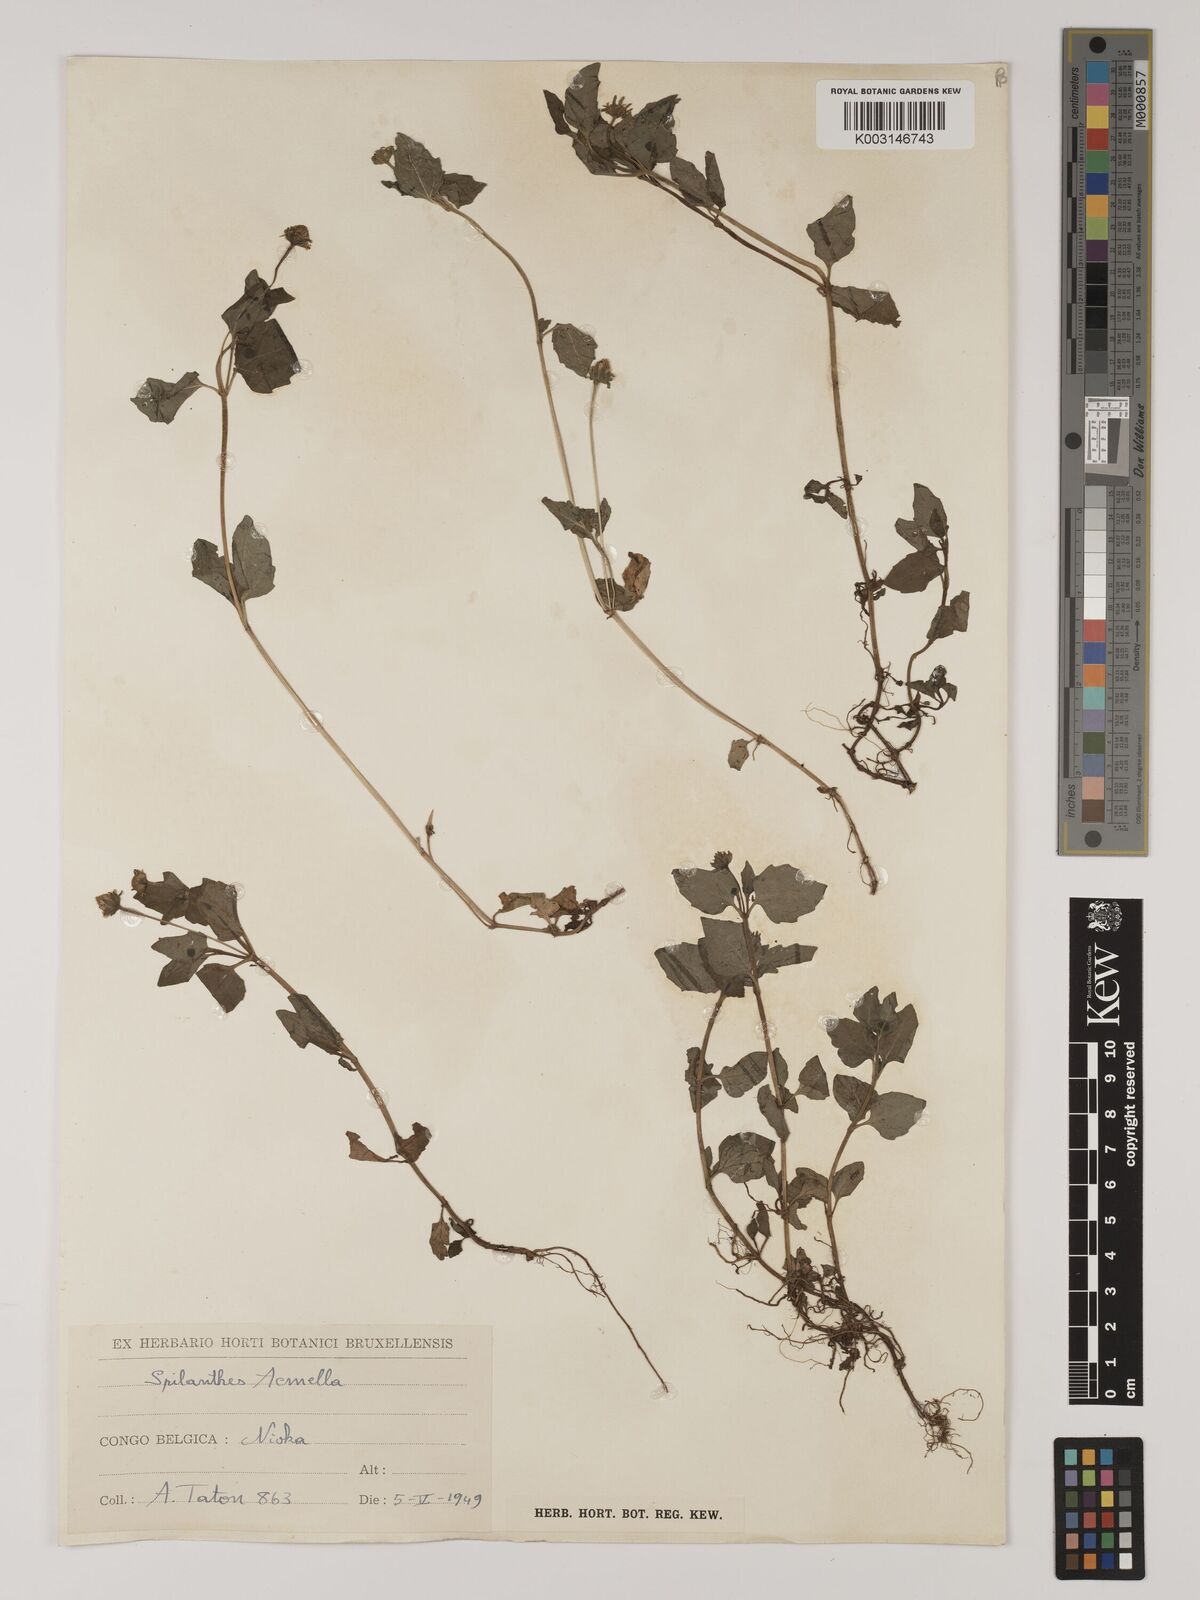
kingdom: Plantae
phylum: Tracheophyta
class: Magnoliopsida
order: Asterales
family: Asteraceae
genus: Blainvillea
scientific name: Blainvillea acmella
